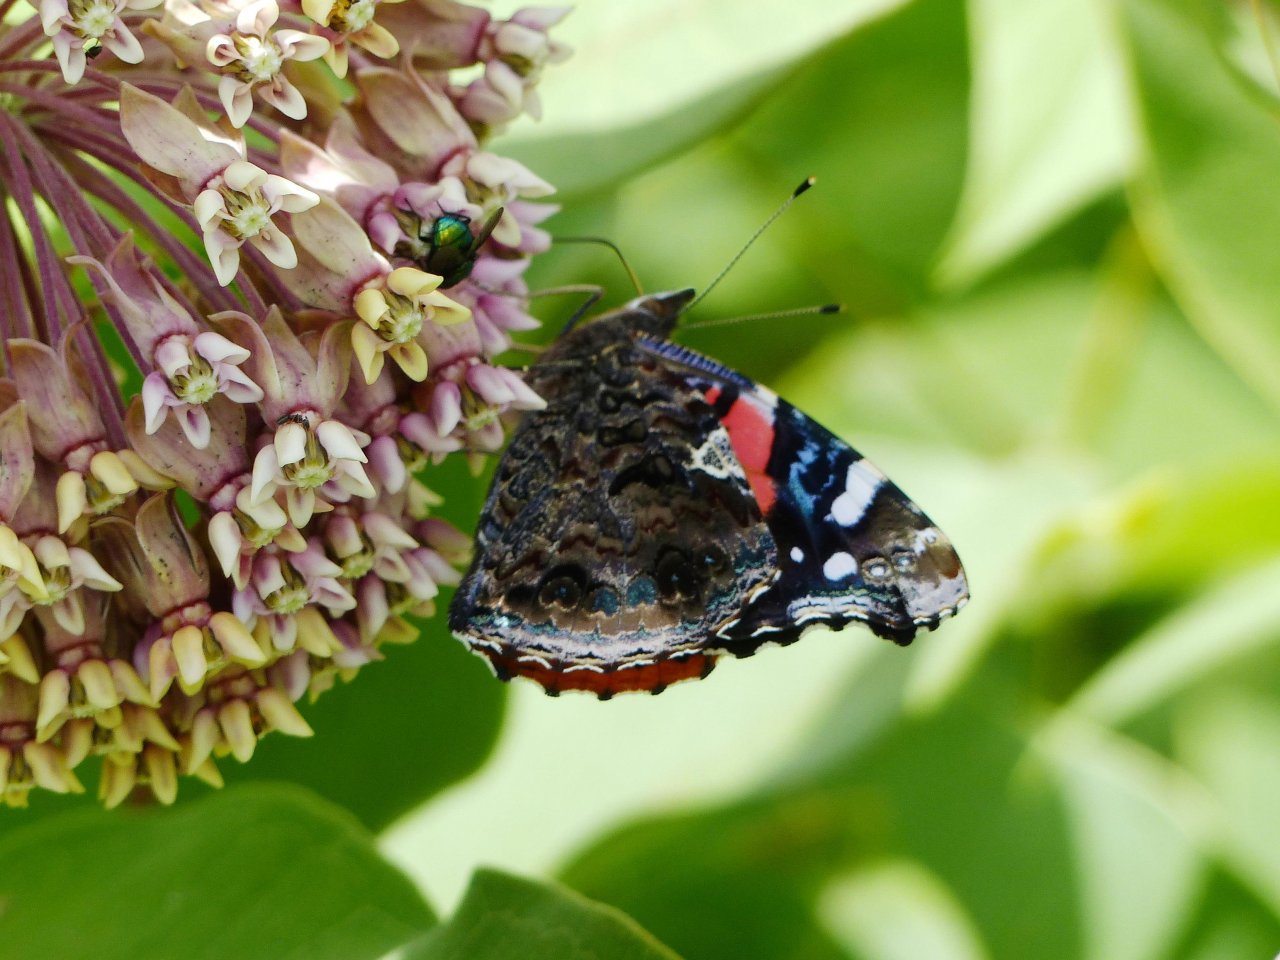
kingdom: Animalia
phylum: Arthropoda
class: Insecta
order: Lepidoptera
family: Nymphalidae
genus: Vanessa
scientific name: Vanessa atalanta
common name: Red Admiral
